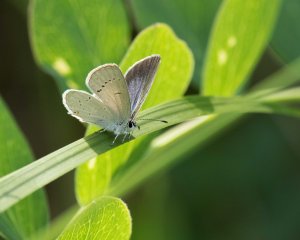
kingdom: Animalia
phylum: Arthropoda
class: Insecta
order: Lepidoptera
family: Lycaenidae
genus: Elkalyce
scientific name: Elkalyce amyntula
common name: Western Tailed-Blue
